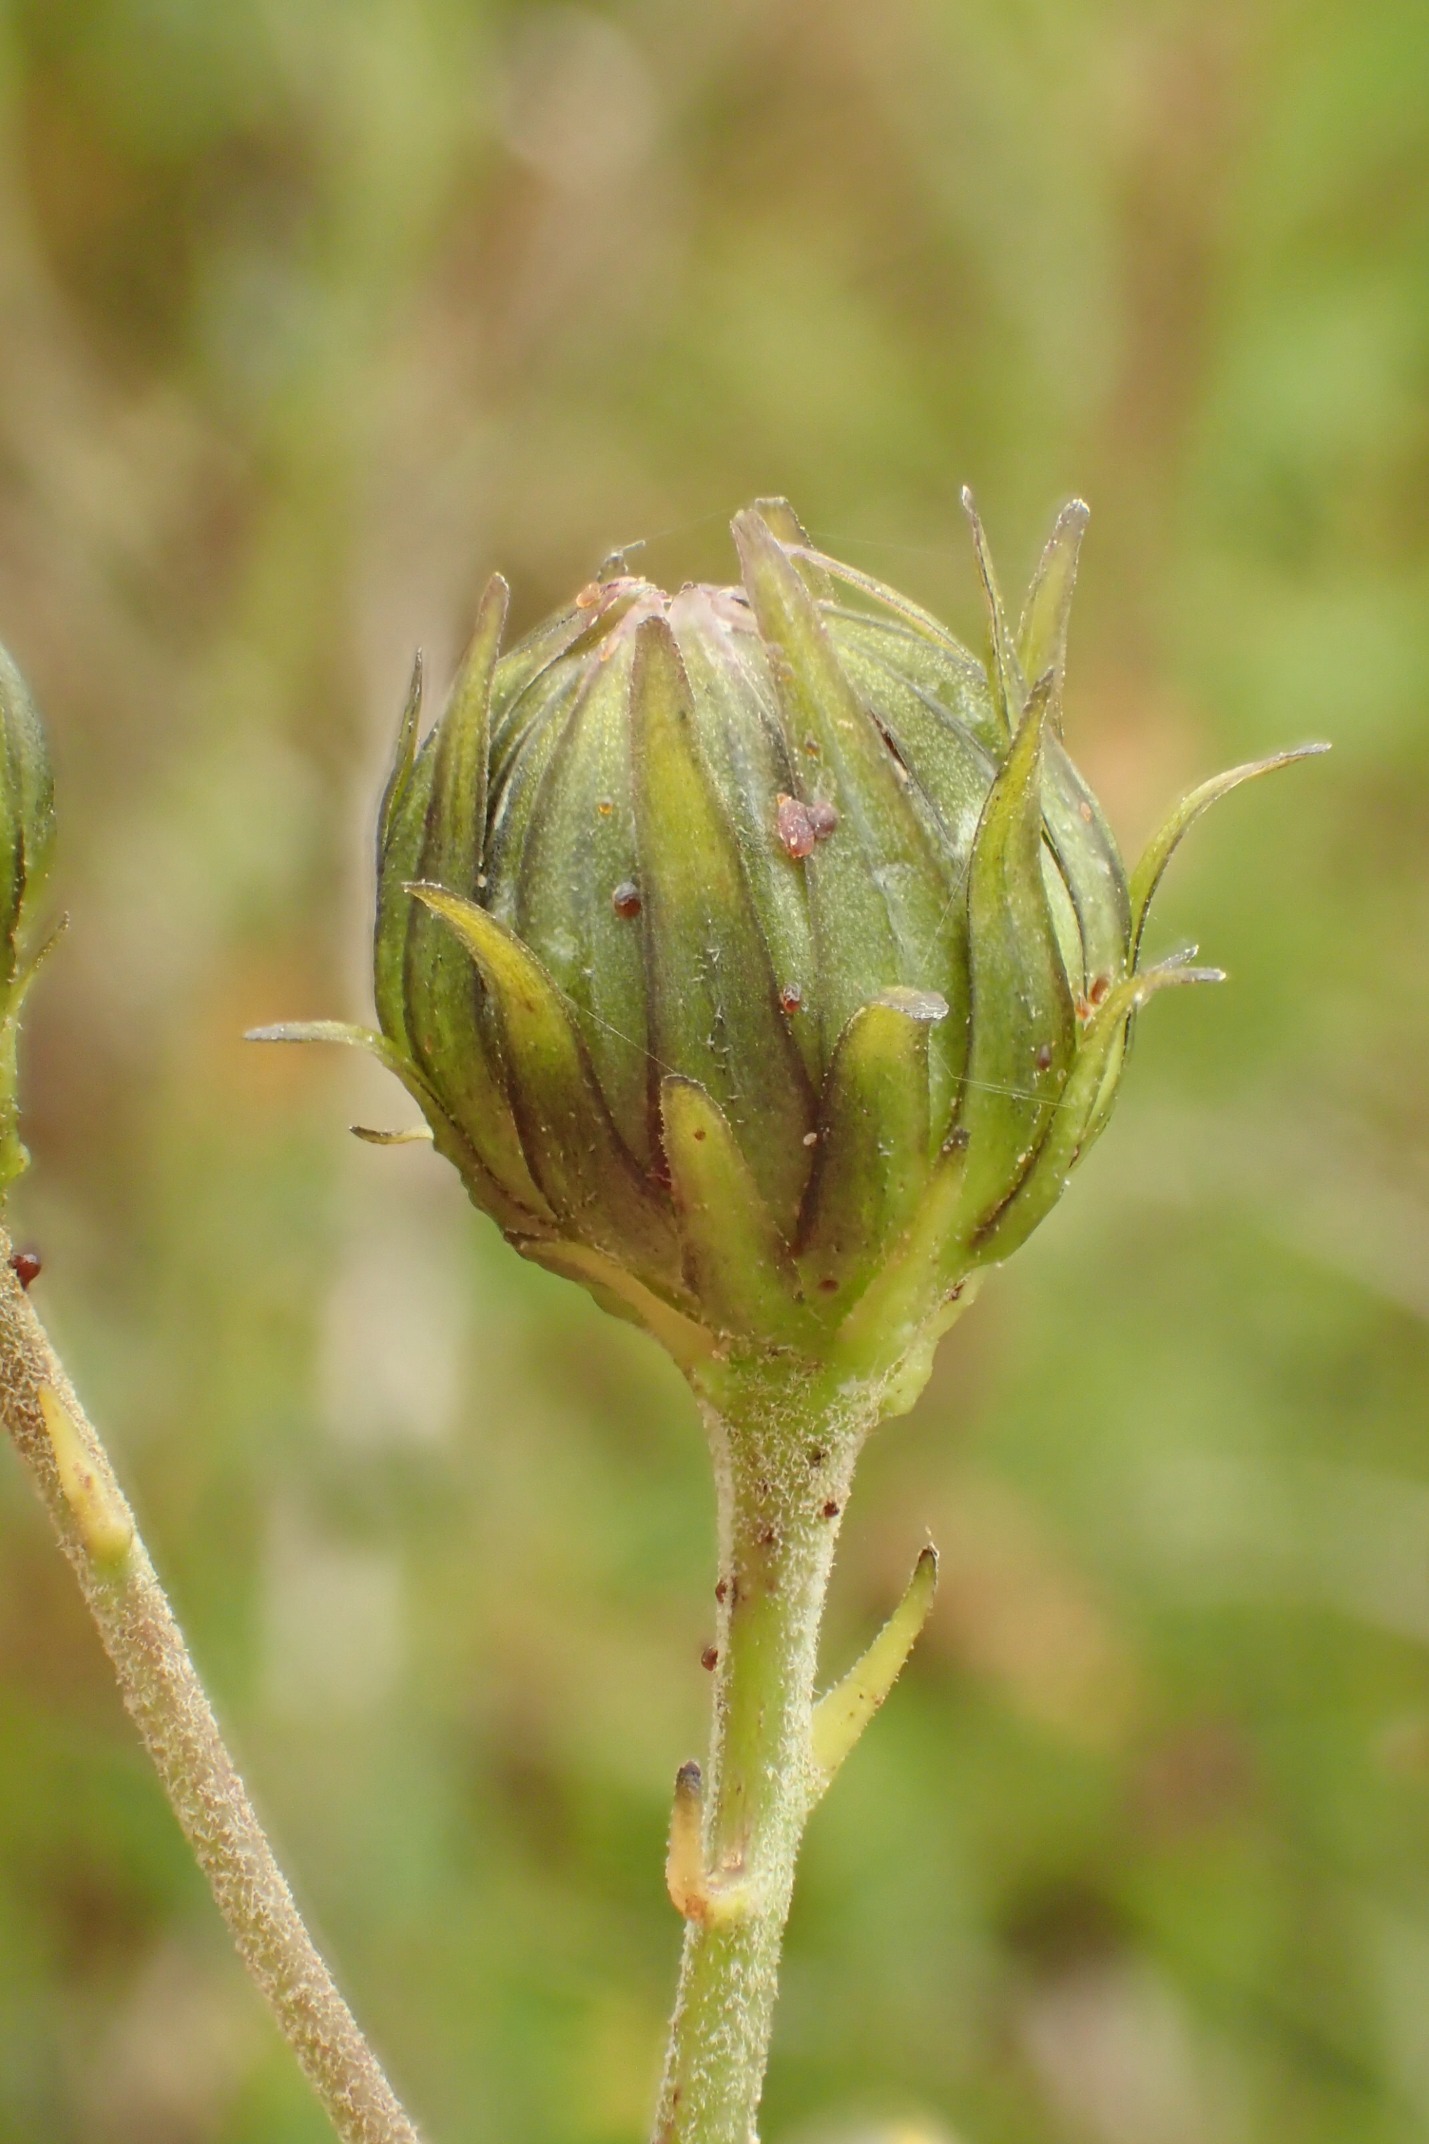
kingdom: Plantae
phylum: Tracheophyta
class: Magnoliopsida
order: Asterales
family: Asteraceae
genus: Hieracium
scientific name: Hieracium umbellatum
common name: Smalbladet høgeurt
